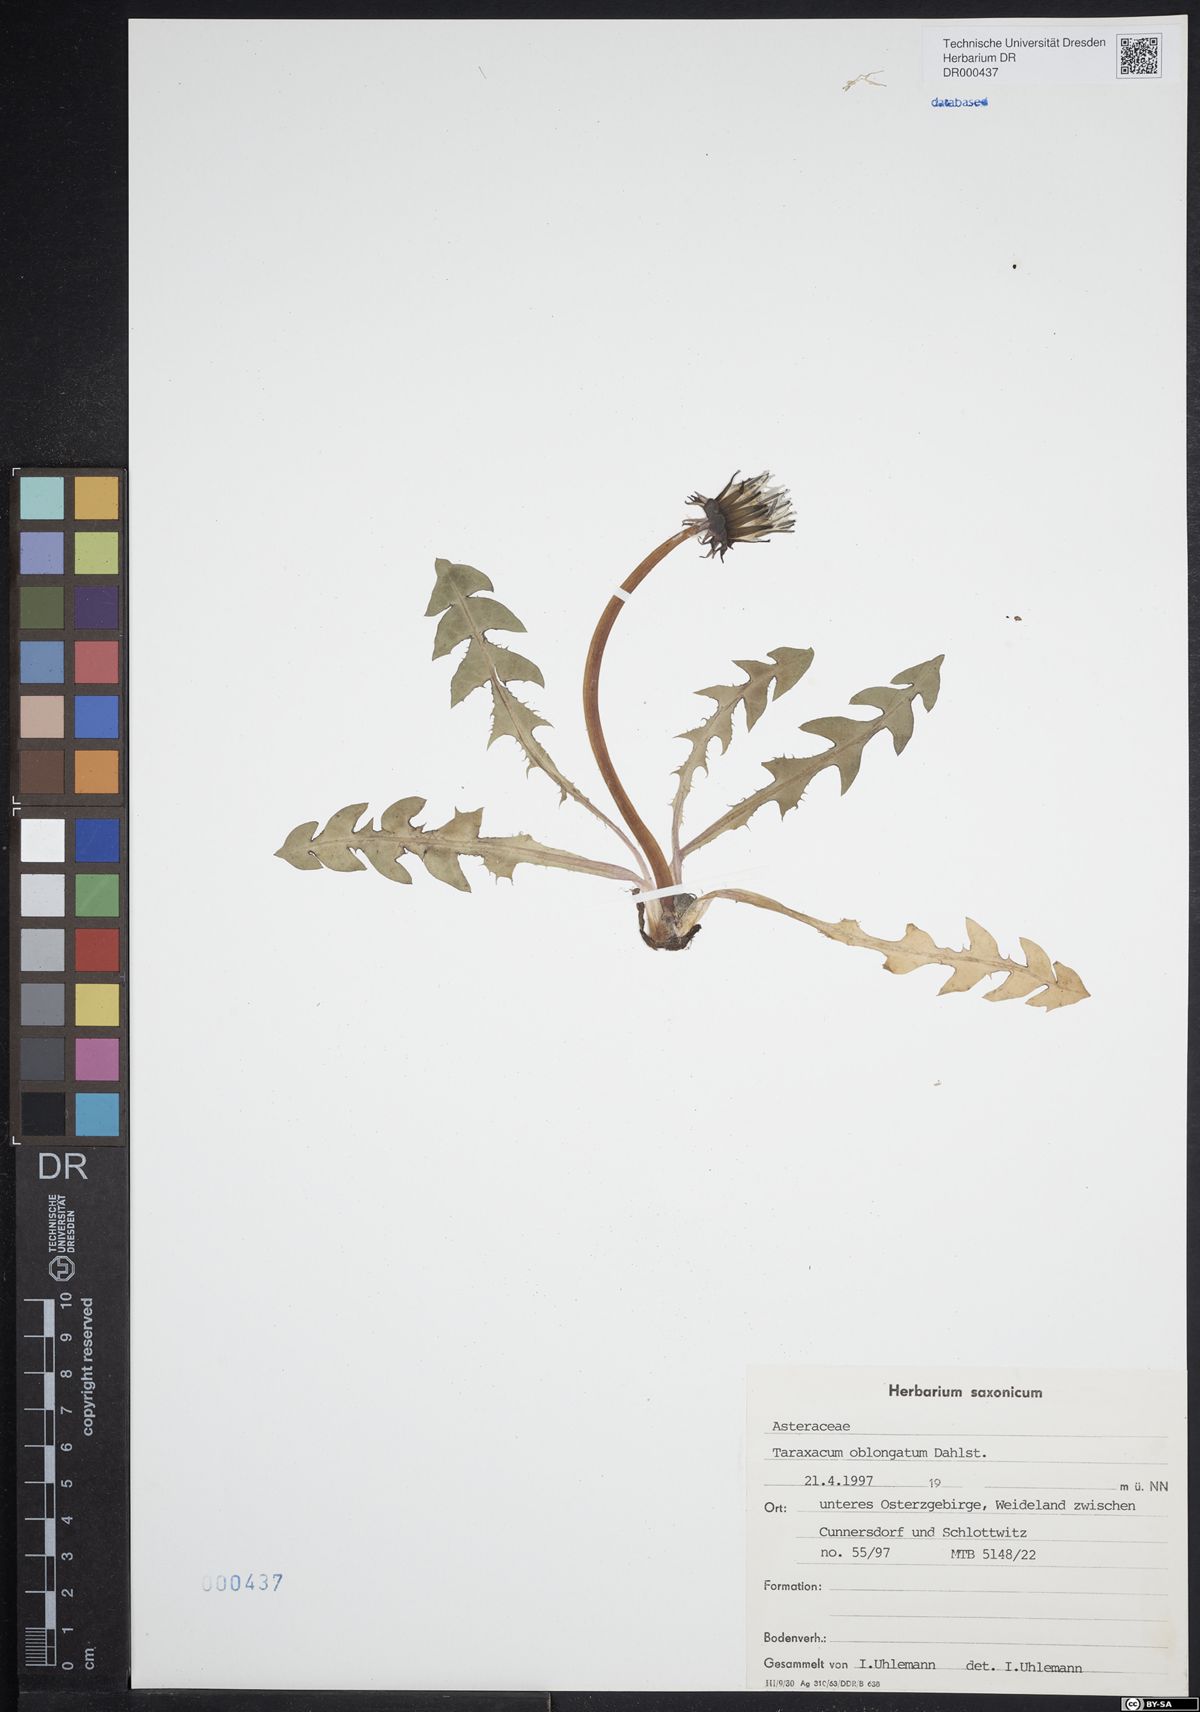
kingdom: Plantae
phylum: Tracheophyta
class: Magnoliopsida
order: Asterales
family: Asteraceae
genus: Taraxacum
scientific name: Taraxacum oblongatum
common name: Oblong-leaved dandelion
